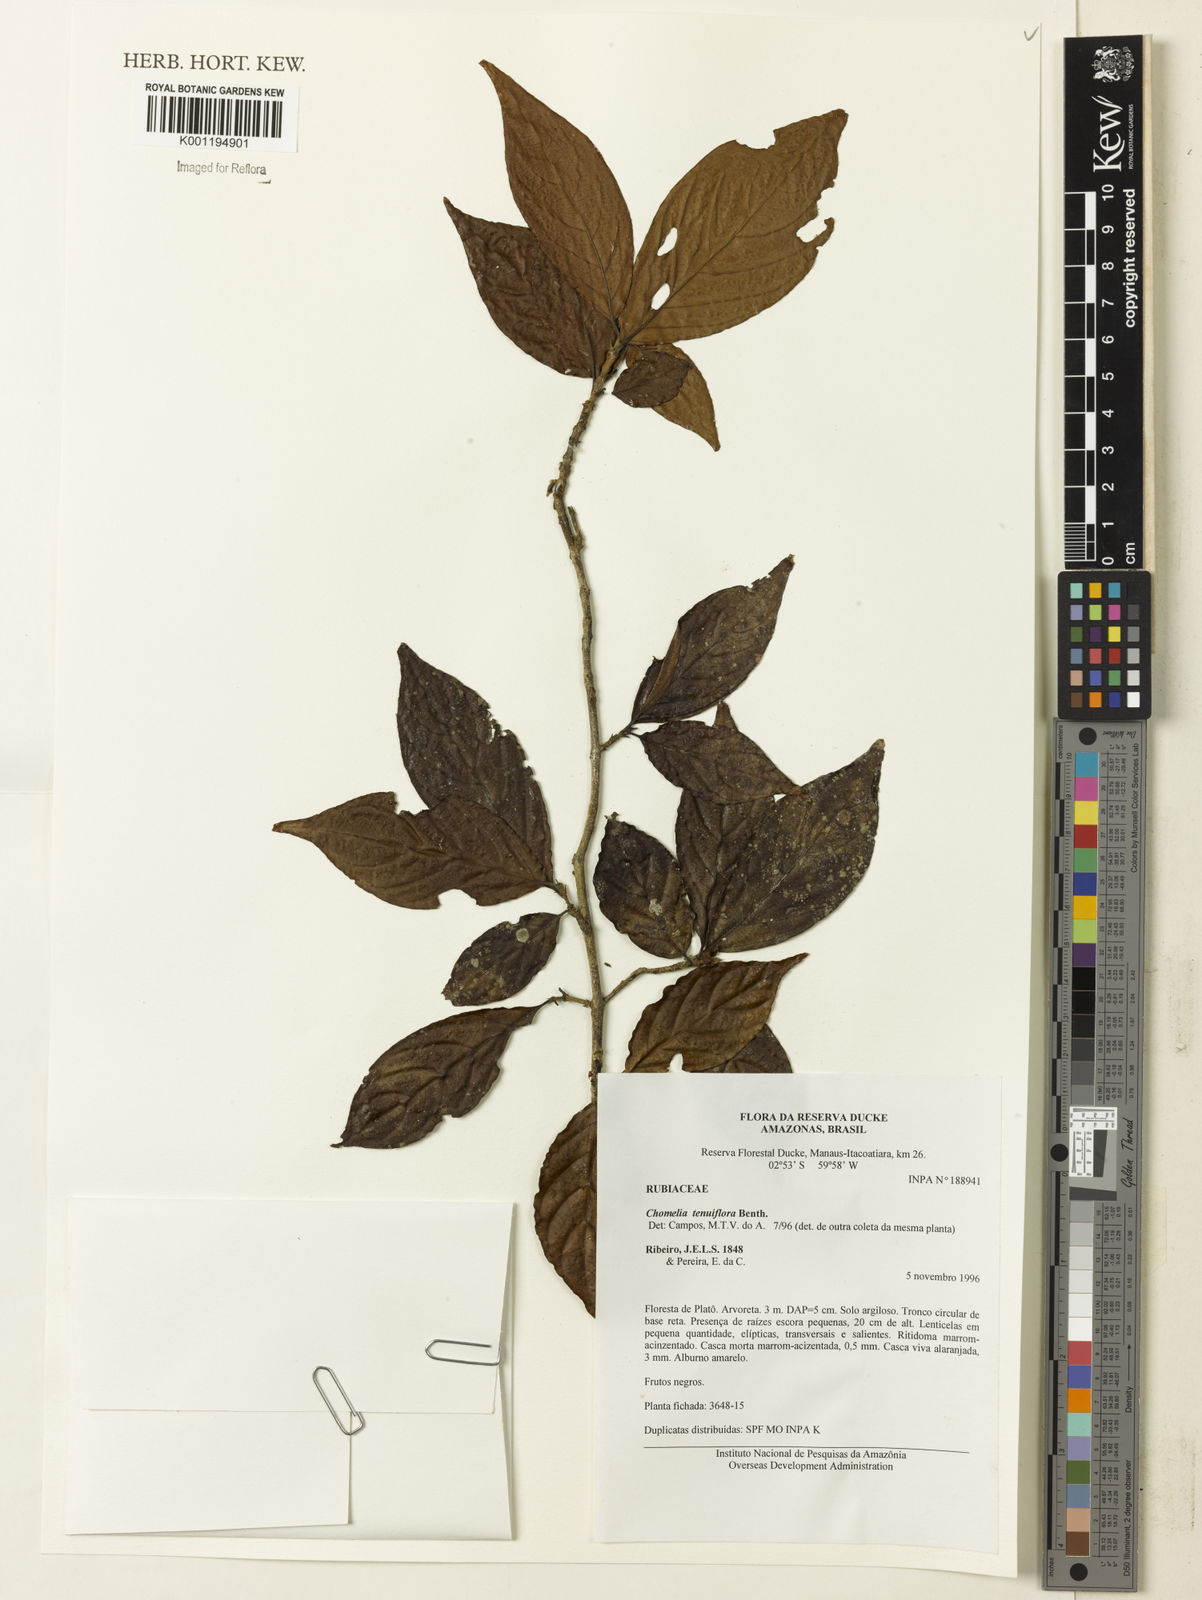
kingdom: Plantae
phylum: Tracheophyta
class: Magnoliopsida
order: Gentianales
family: Rubiaceae
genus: Chomelia
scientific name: Chomelia tenuiflora
